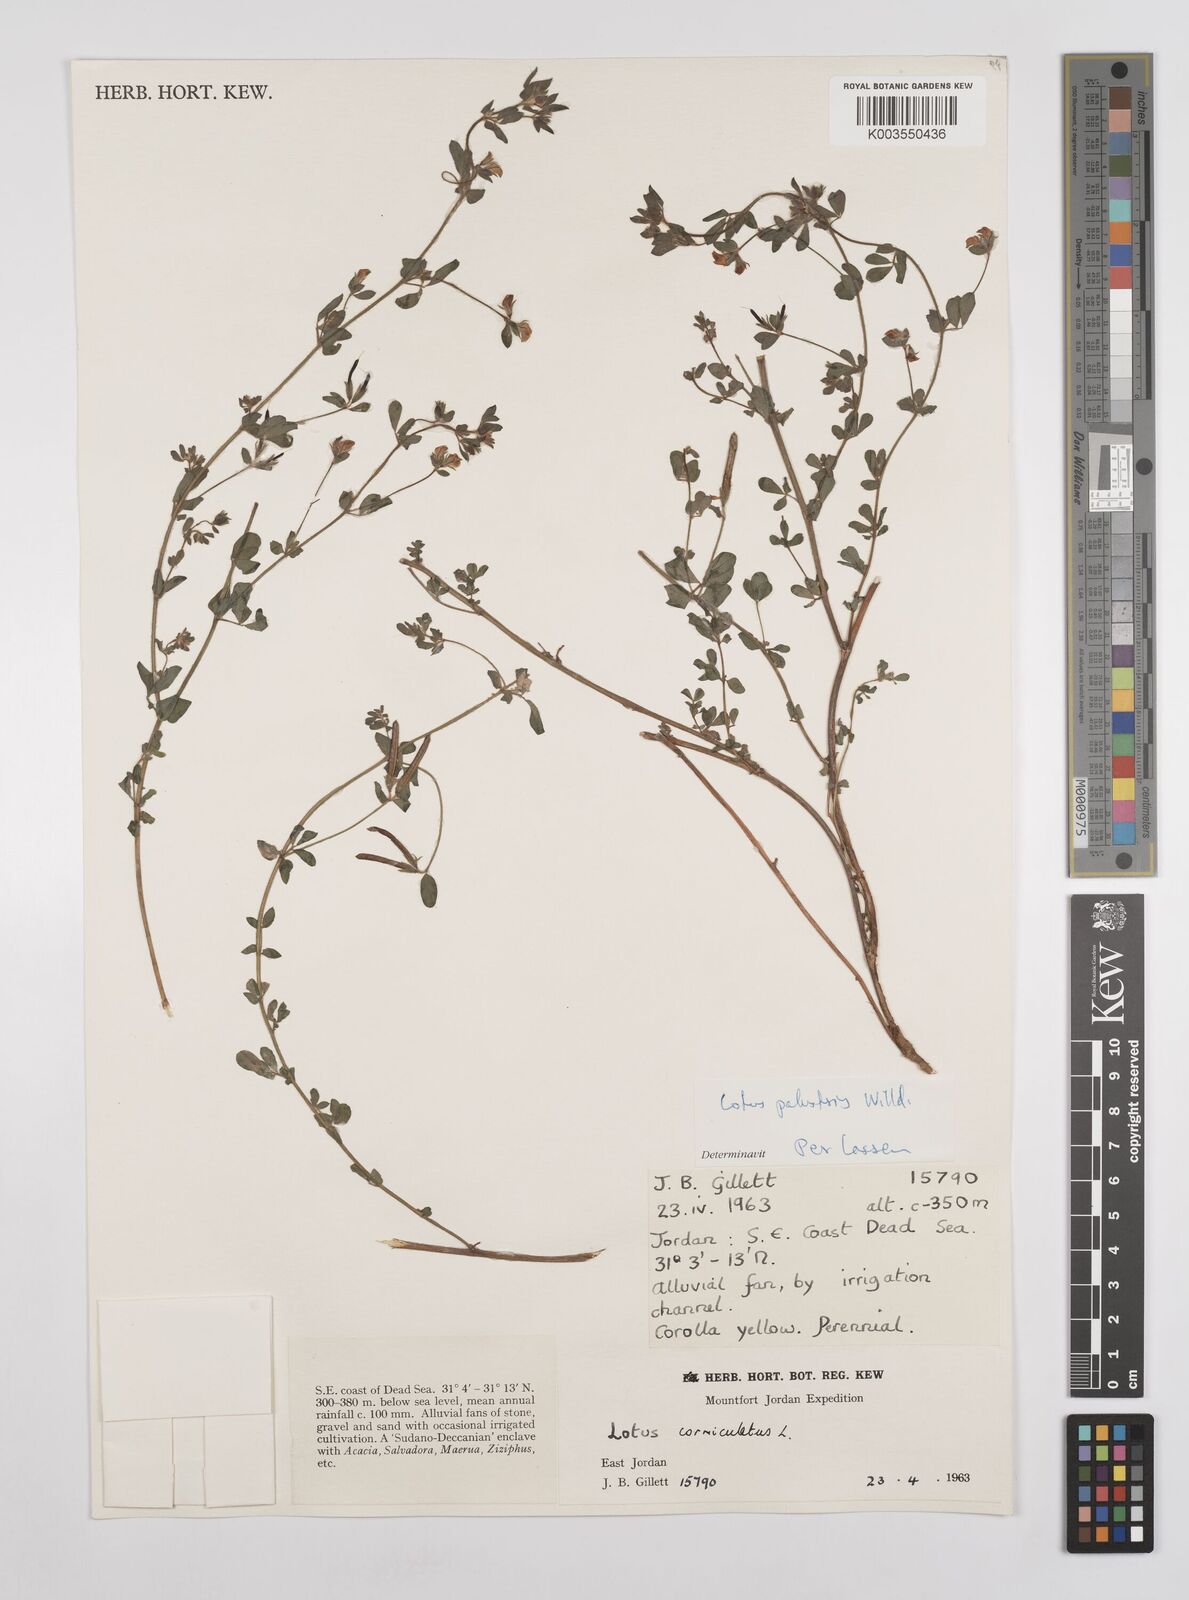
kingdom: Plantae
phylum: Tracheophyta
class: Magnoliopsida
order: Fabales
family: Fabaceae
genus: Lotus
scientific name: Lotus palustris
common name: Large birds-foot trefoil
